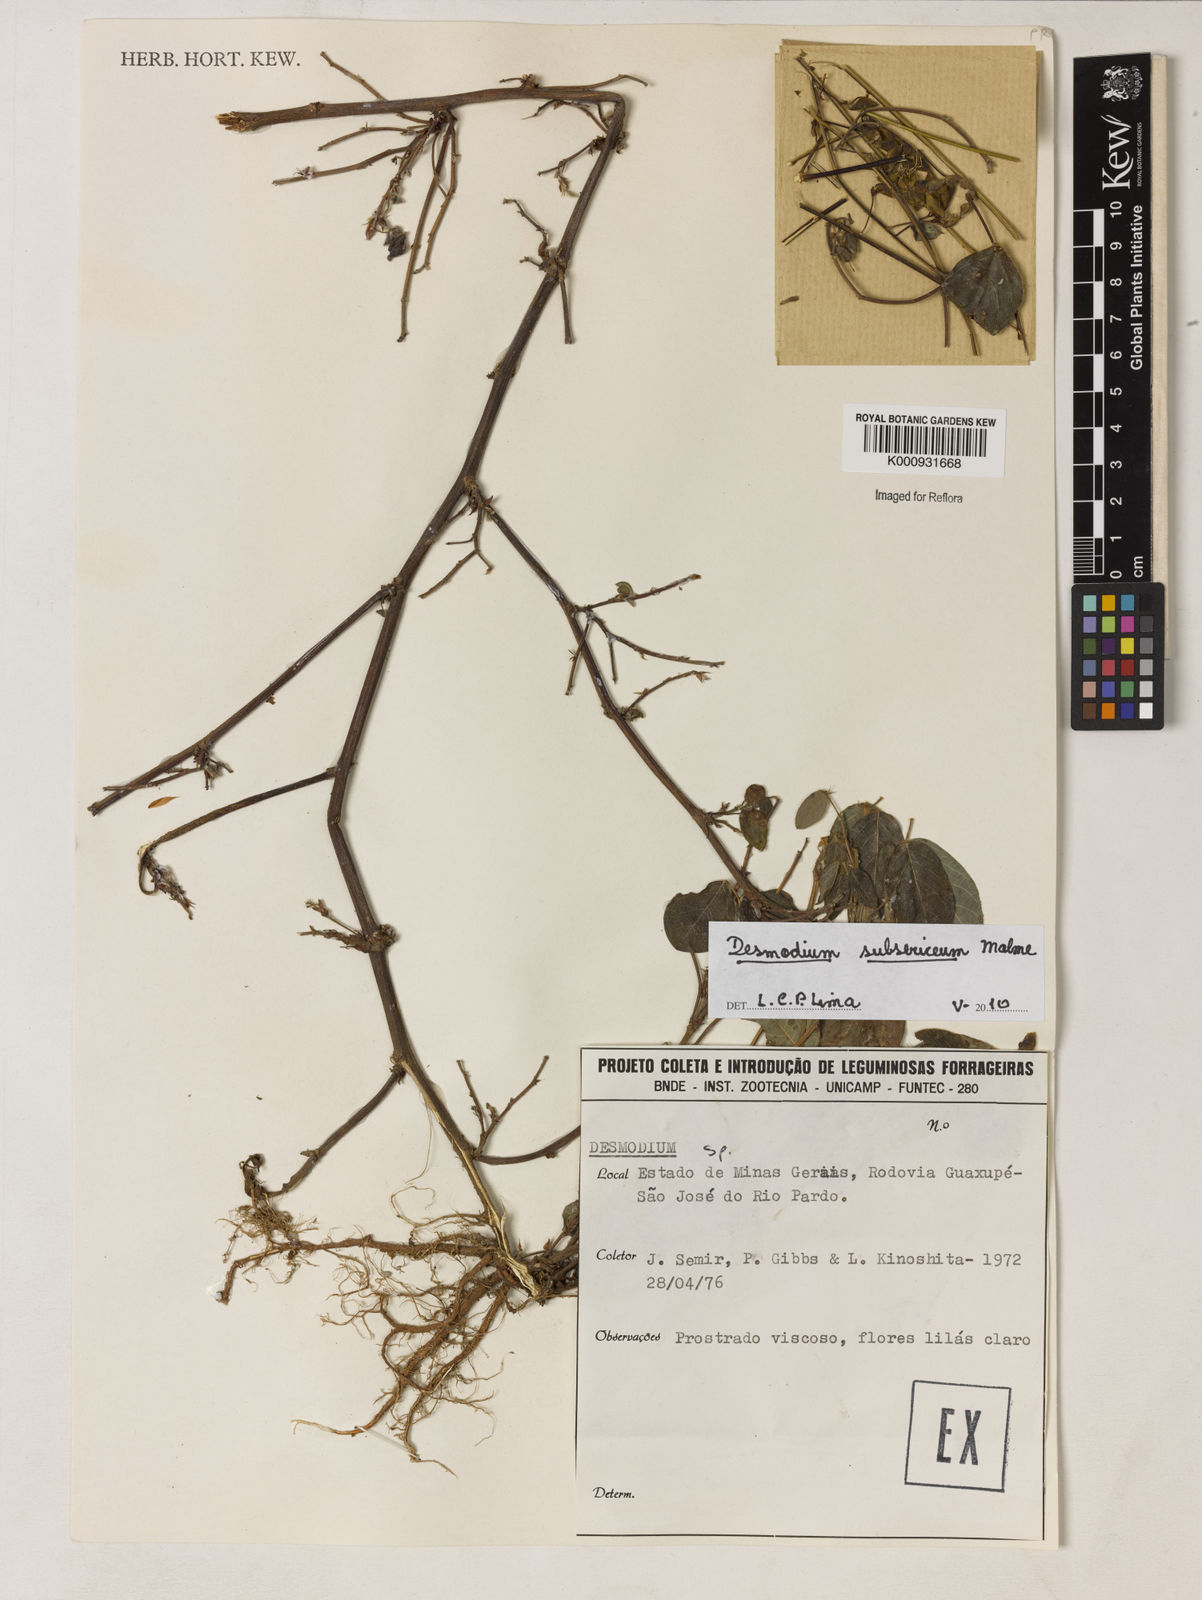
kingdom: Plantae
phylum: Tracheophyta
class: Magnoliopsida
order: Fabales
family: Fabaceae
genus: Desmodium
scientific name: Desmodium subsericeum
